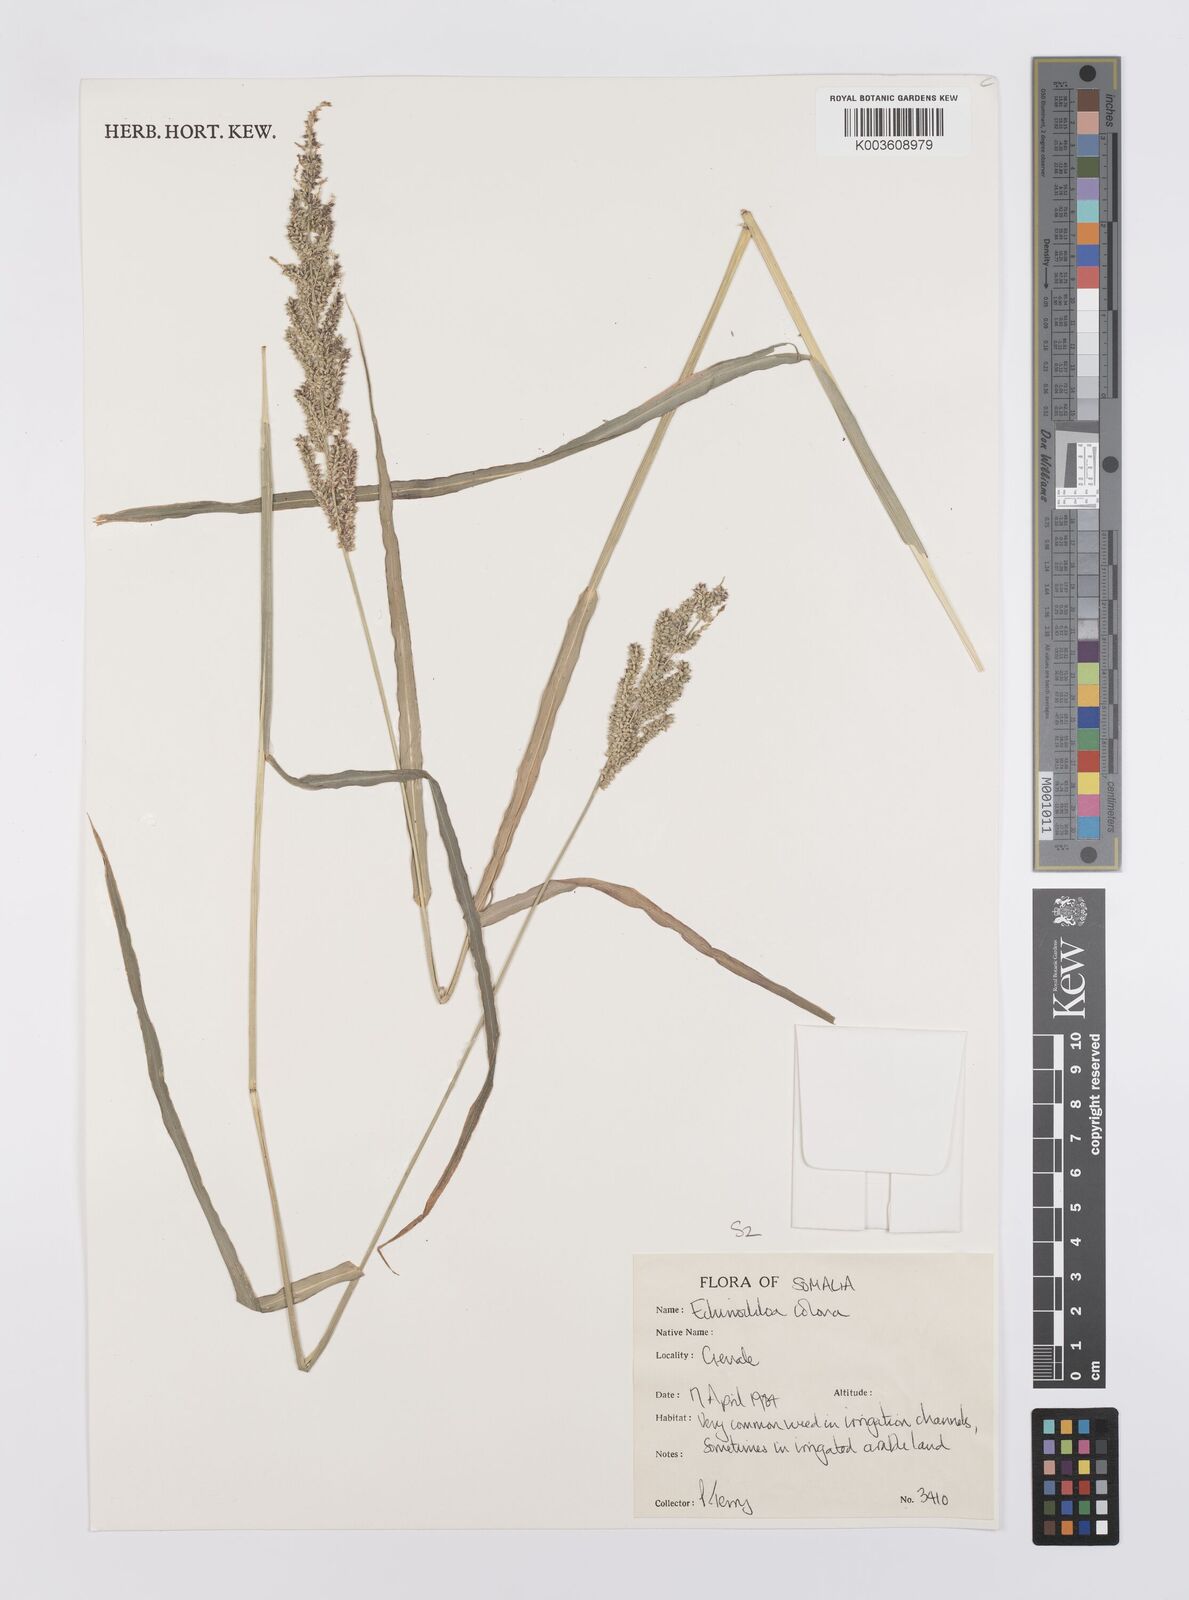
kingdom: Plantae
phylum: Tracheophyta
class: Liliopsida
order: Poales
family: Poaceae
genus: Echinochloa
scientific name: Echinochloa colonum
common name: Jungle rice
